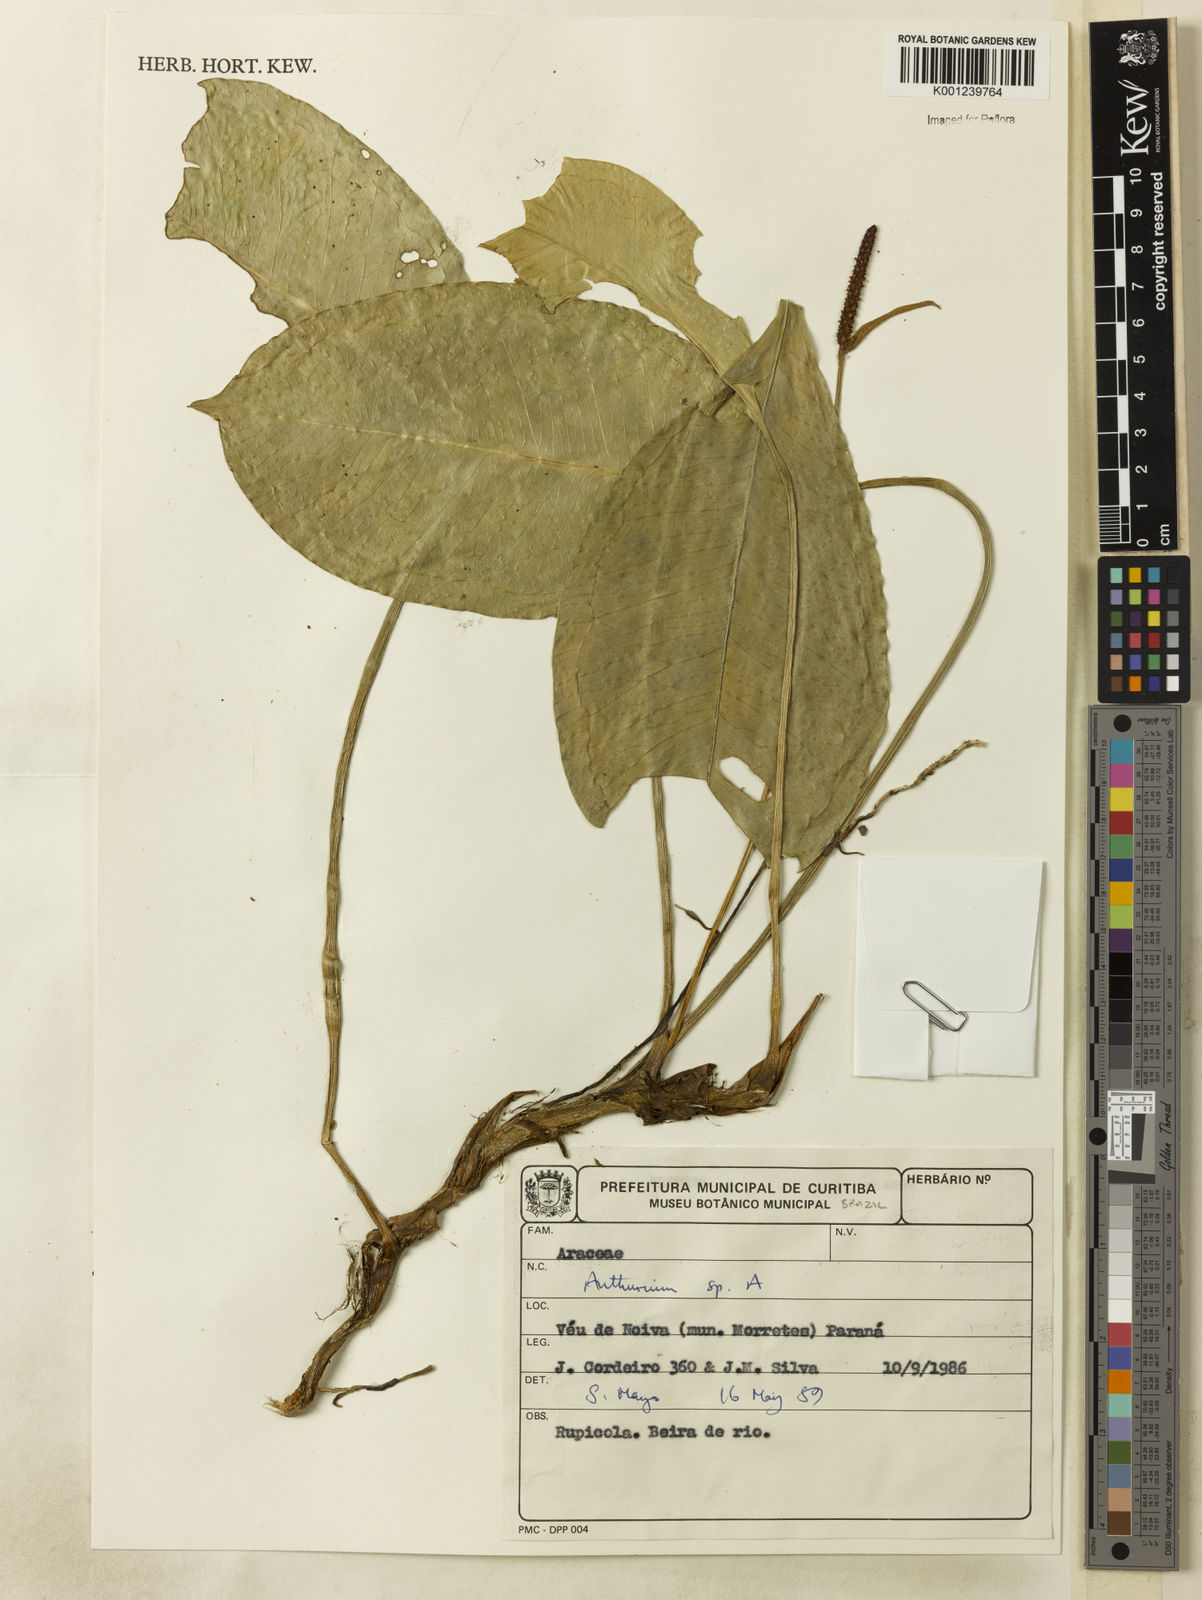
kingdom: Plantae
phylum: Tracheophyta
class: Liliopsida
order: Alismatales
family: Araceae
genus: Anthurium
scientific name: Anthurium
